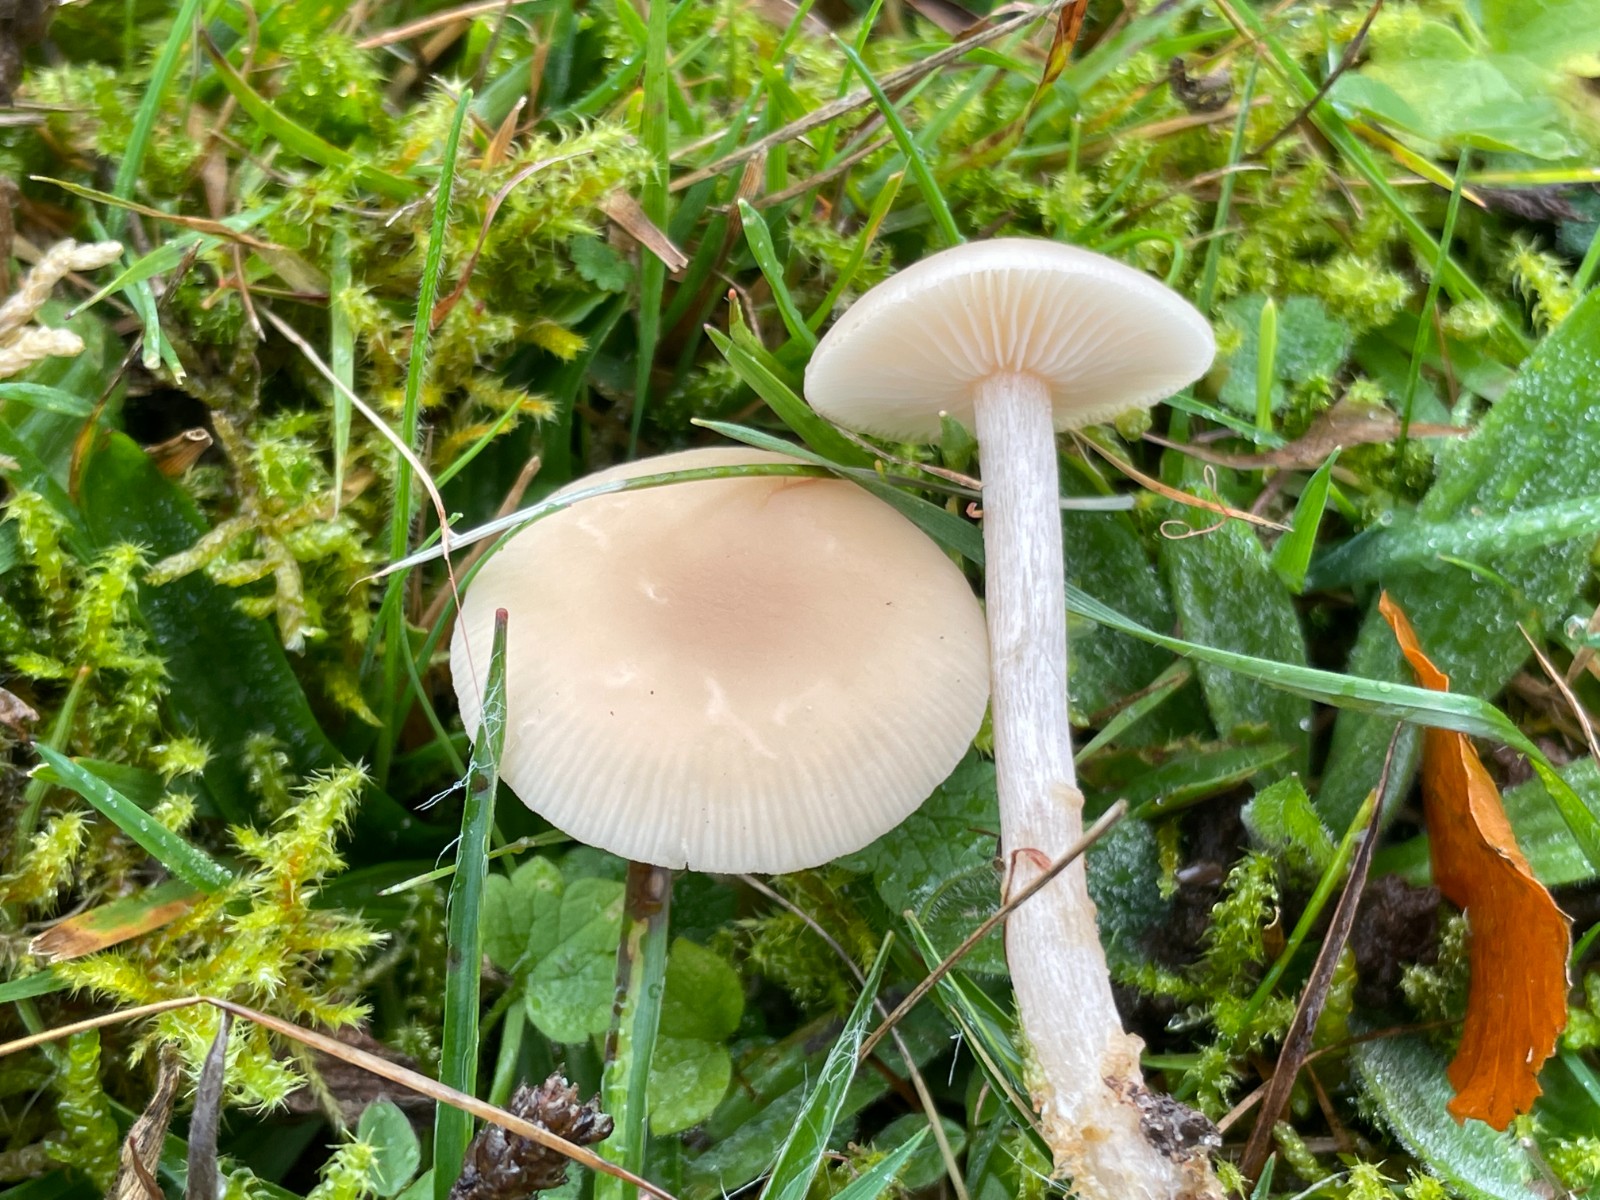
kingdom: Fungi
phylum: Basidiomycota
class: Agaricomycetes
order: Agaricales
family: Tricholomataceae
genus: Clitocybe
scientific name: Clitocybe fragrans
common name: vellugtende tragthat
